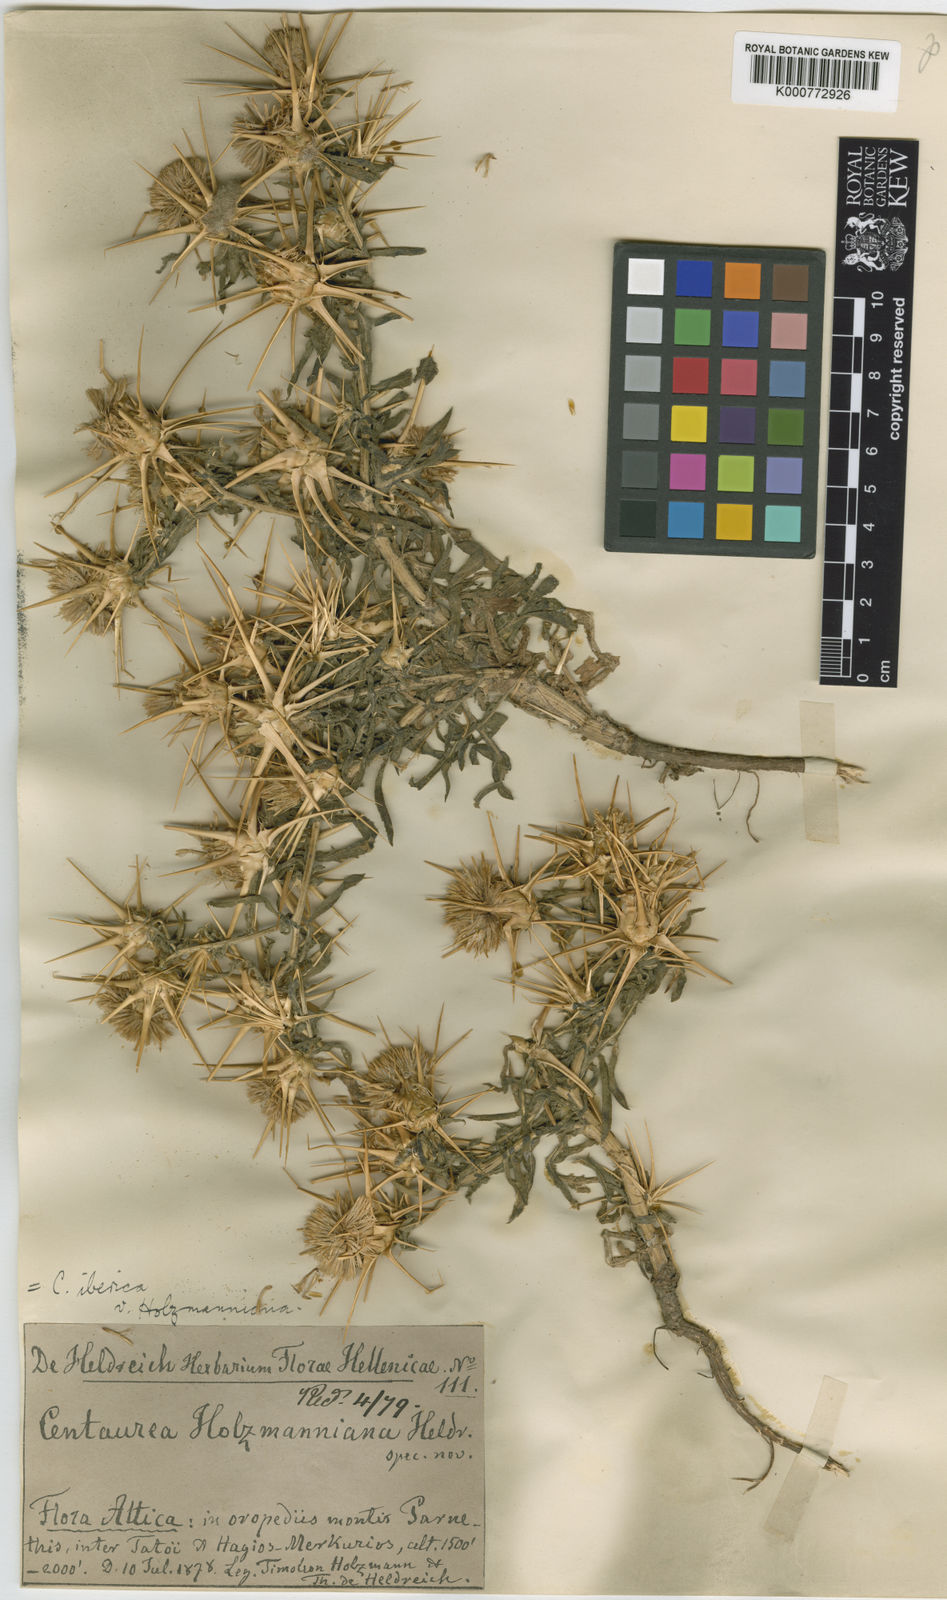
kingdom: Plantae
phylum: Tracheophyta
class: Magnoliopsida
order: Asterales
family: Asteraceae
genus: Centaurea
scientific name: Centaurea iberica
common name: Iberian knapweed
